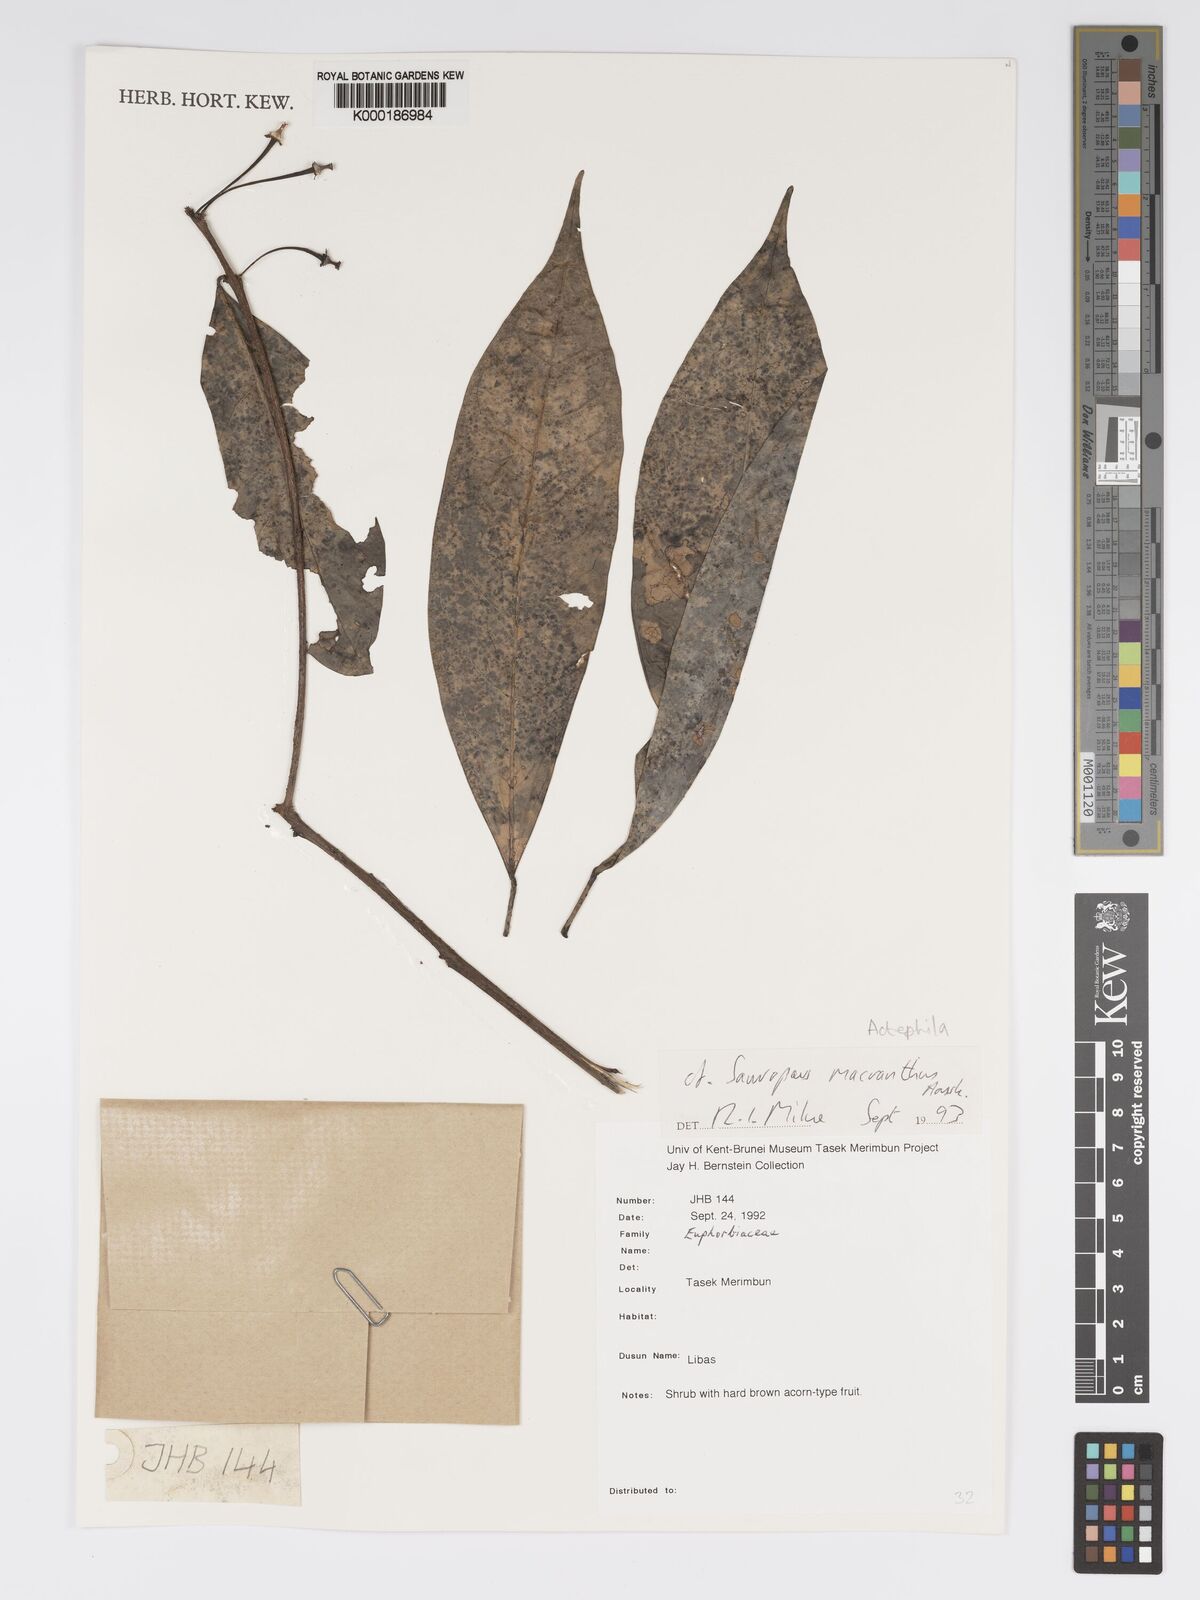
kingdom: Plantae
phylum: Tracheophyta
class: Magnoliopsida
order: Malpighiales
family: Phyllanthaceae
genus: Actephila
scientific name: Actephila
